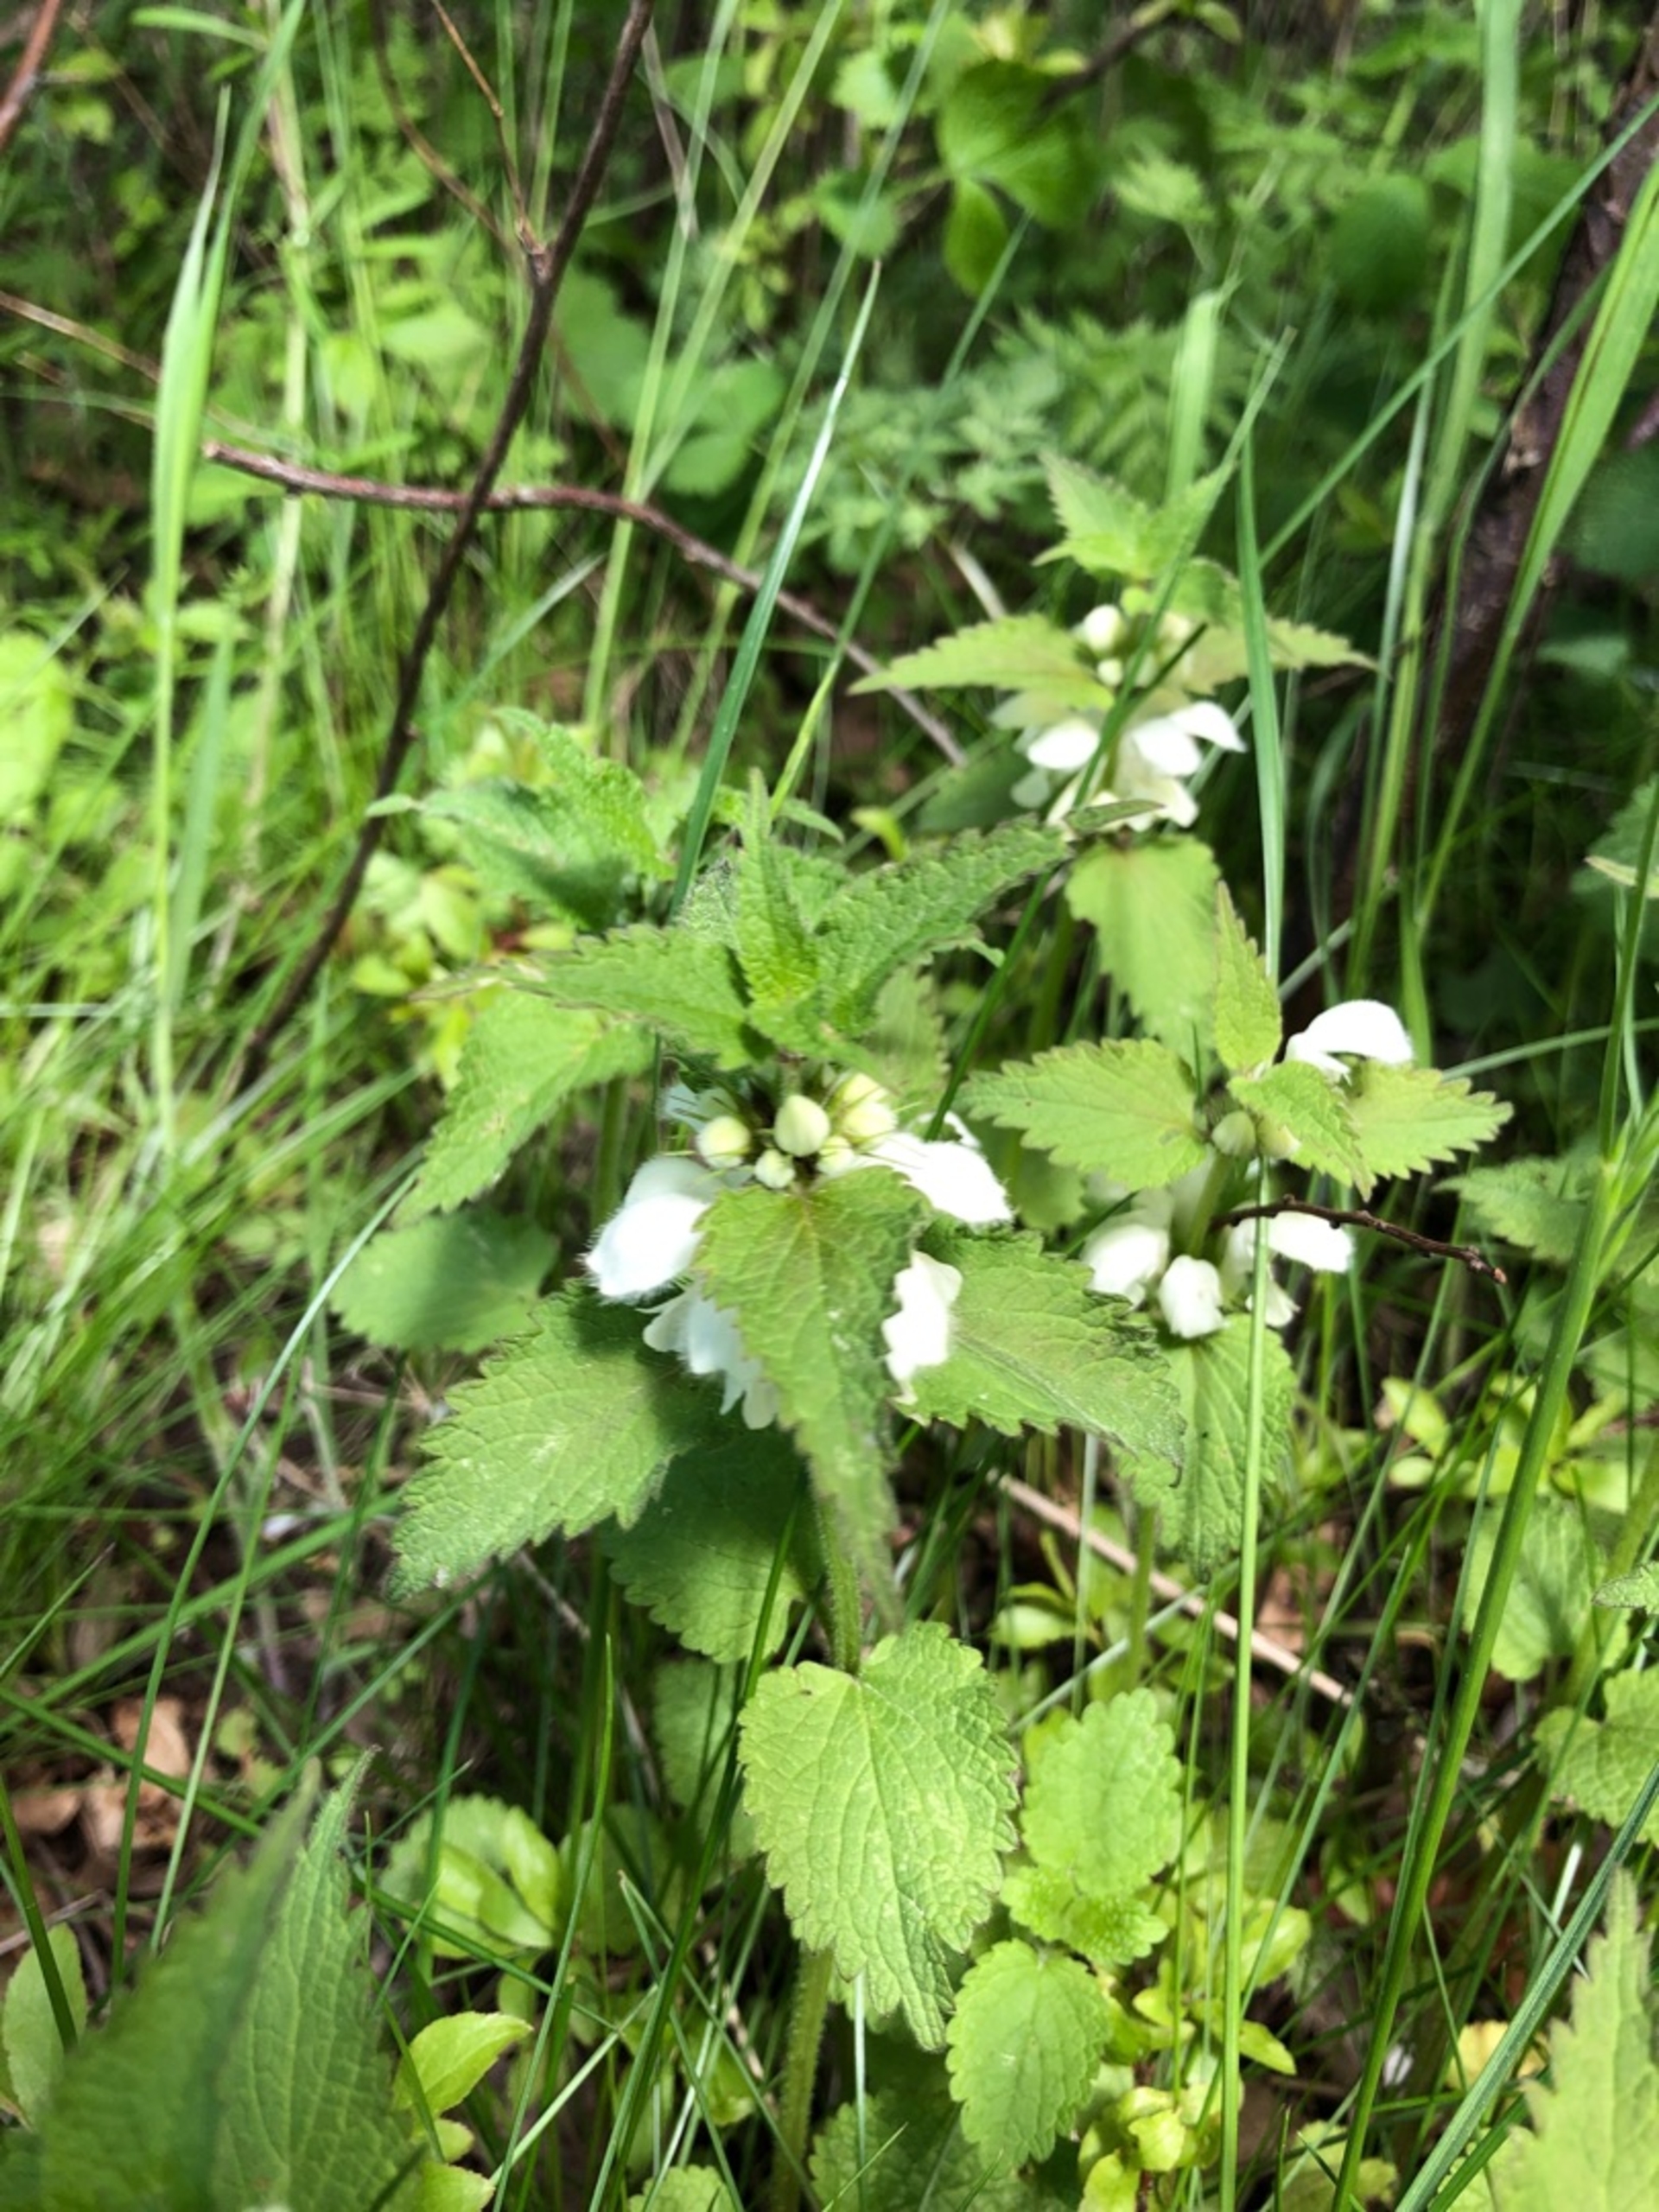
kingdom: Plantae
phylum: Tracheophyta
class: Magnoliopsida
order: Lamiales
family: Lamiaceae
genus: Lamium
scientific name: Lamium album
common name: Døvnælde
